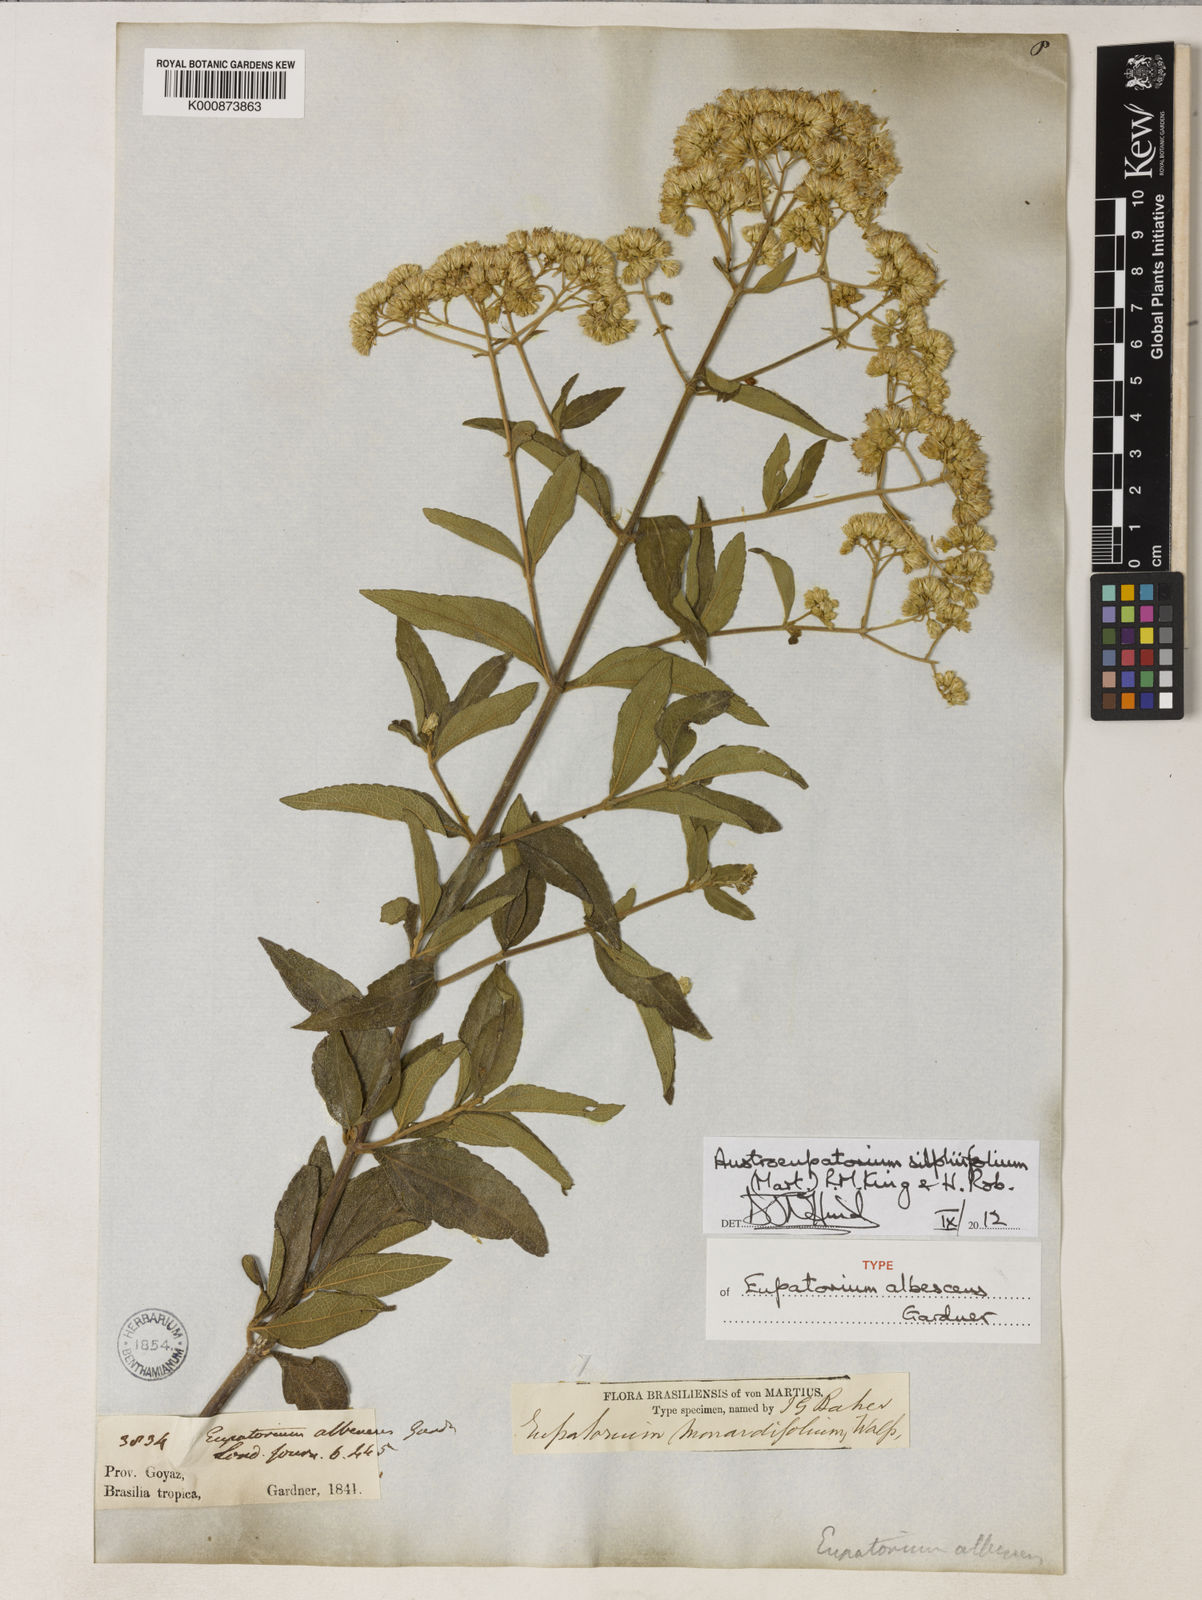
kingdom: Plantae
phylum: Tracheophyta
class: Magnoliopsida
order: Asterales
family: Asteraceae
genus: Austroeupatorium
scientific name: Austroeupatorium silphiifolium
